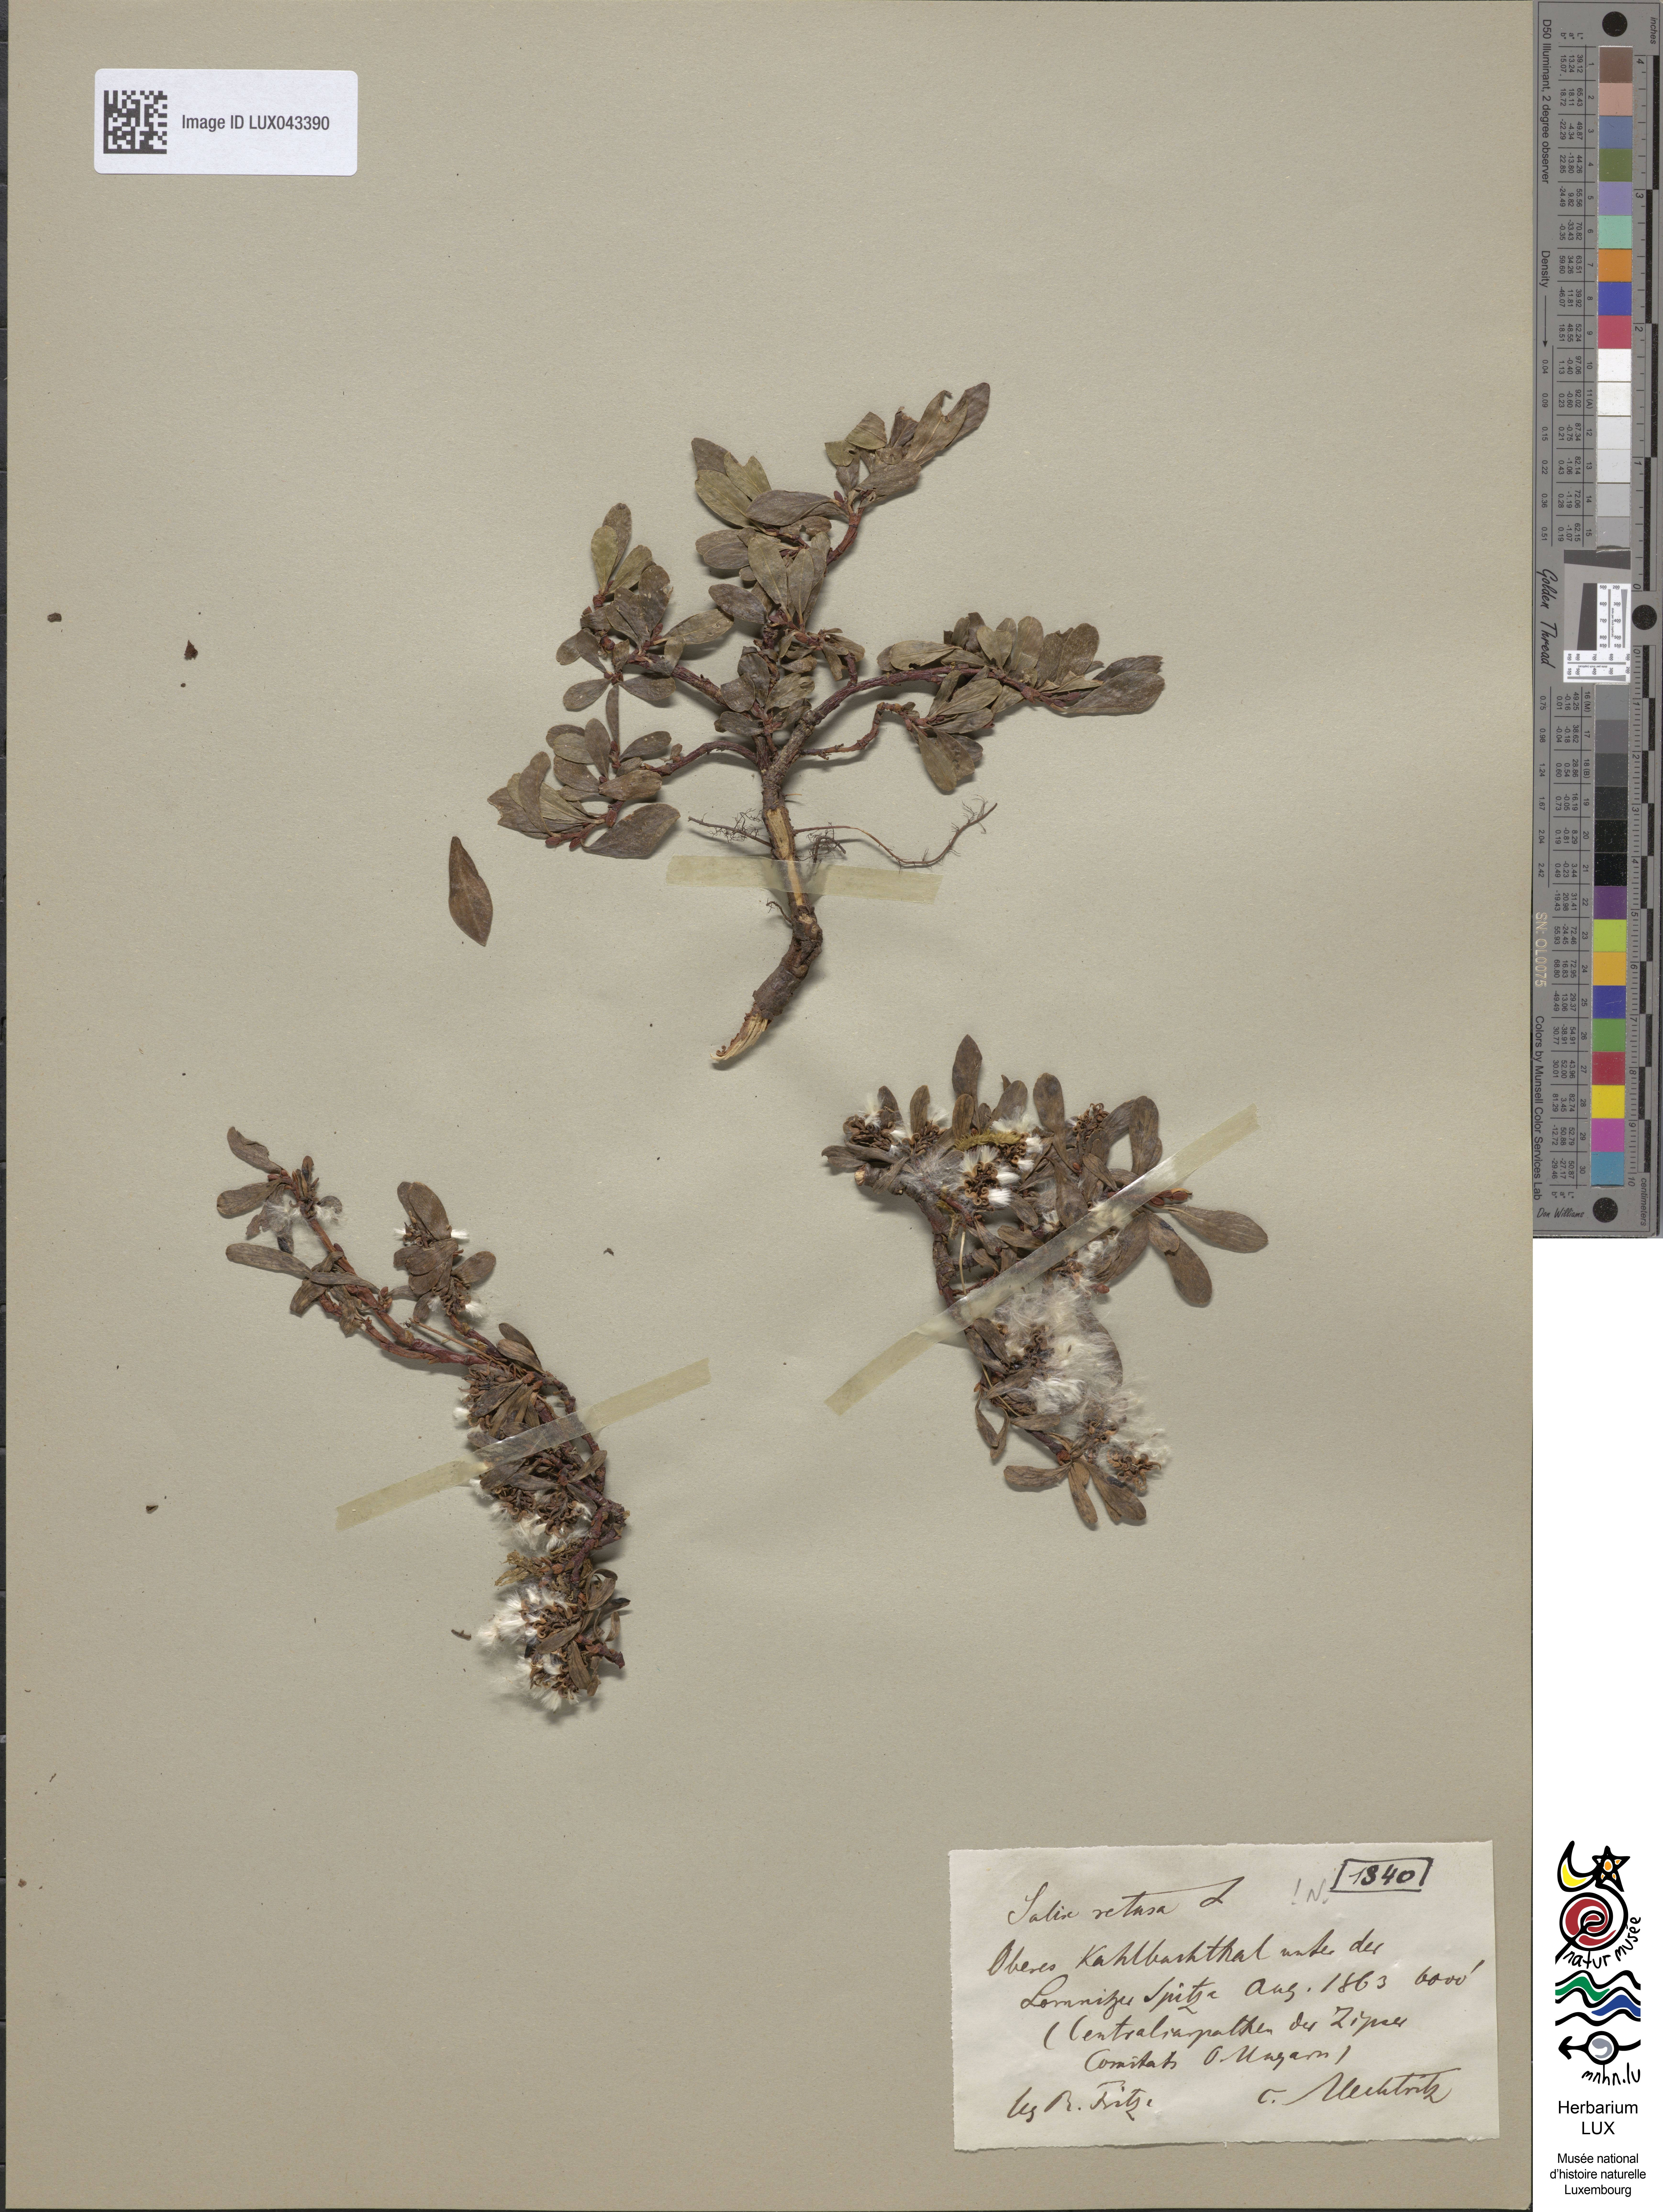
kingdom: Plantae
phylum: Tracheophyta
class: Magnoliopsida
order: Malpighiales
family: Salicaceae
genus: Salix
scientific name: Salix retusa
